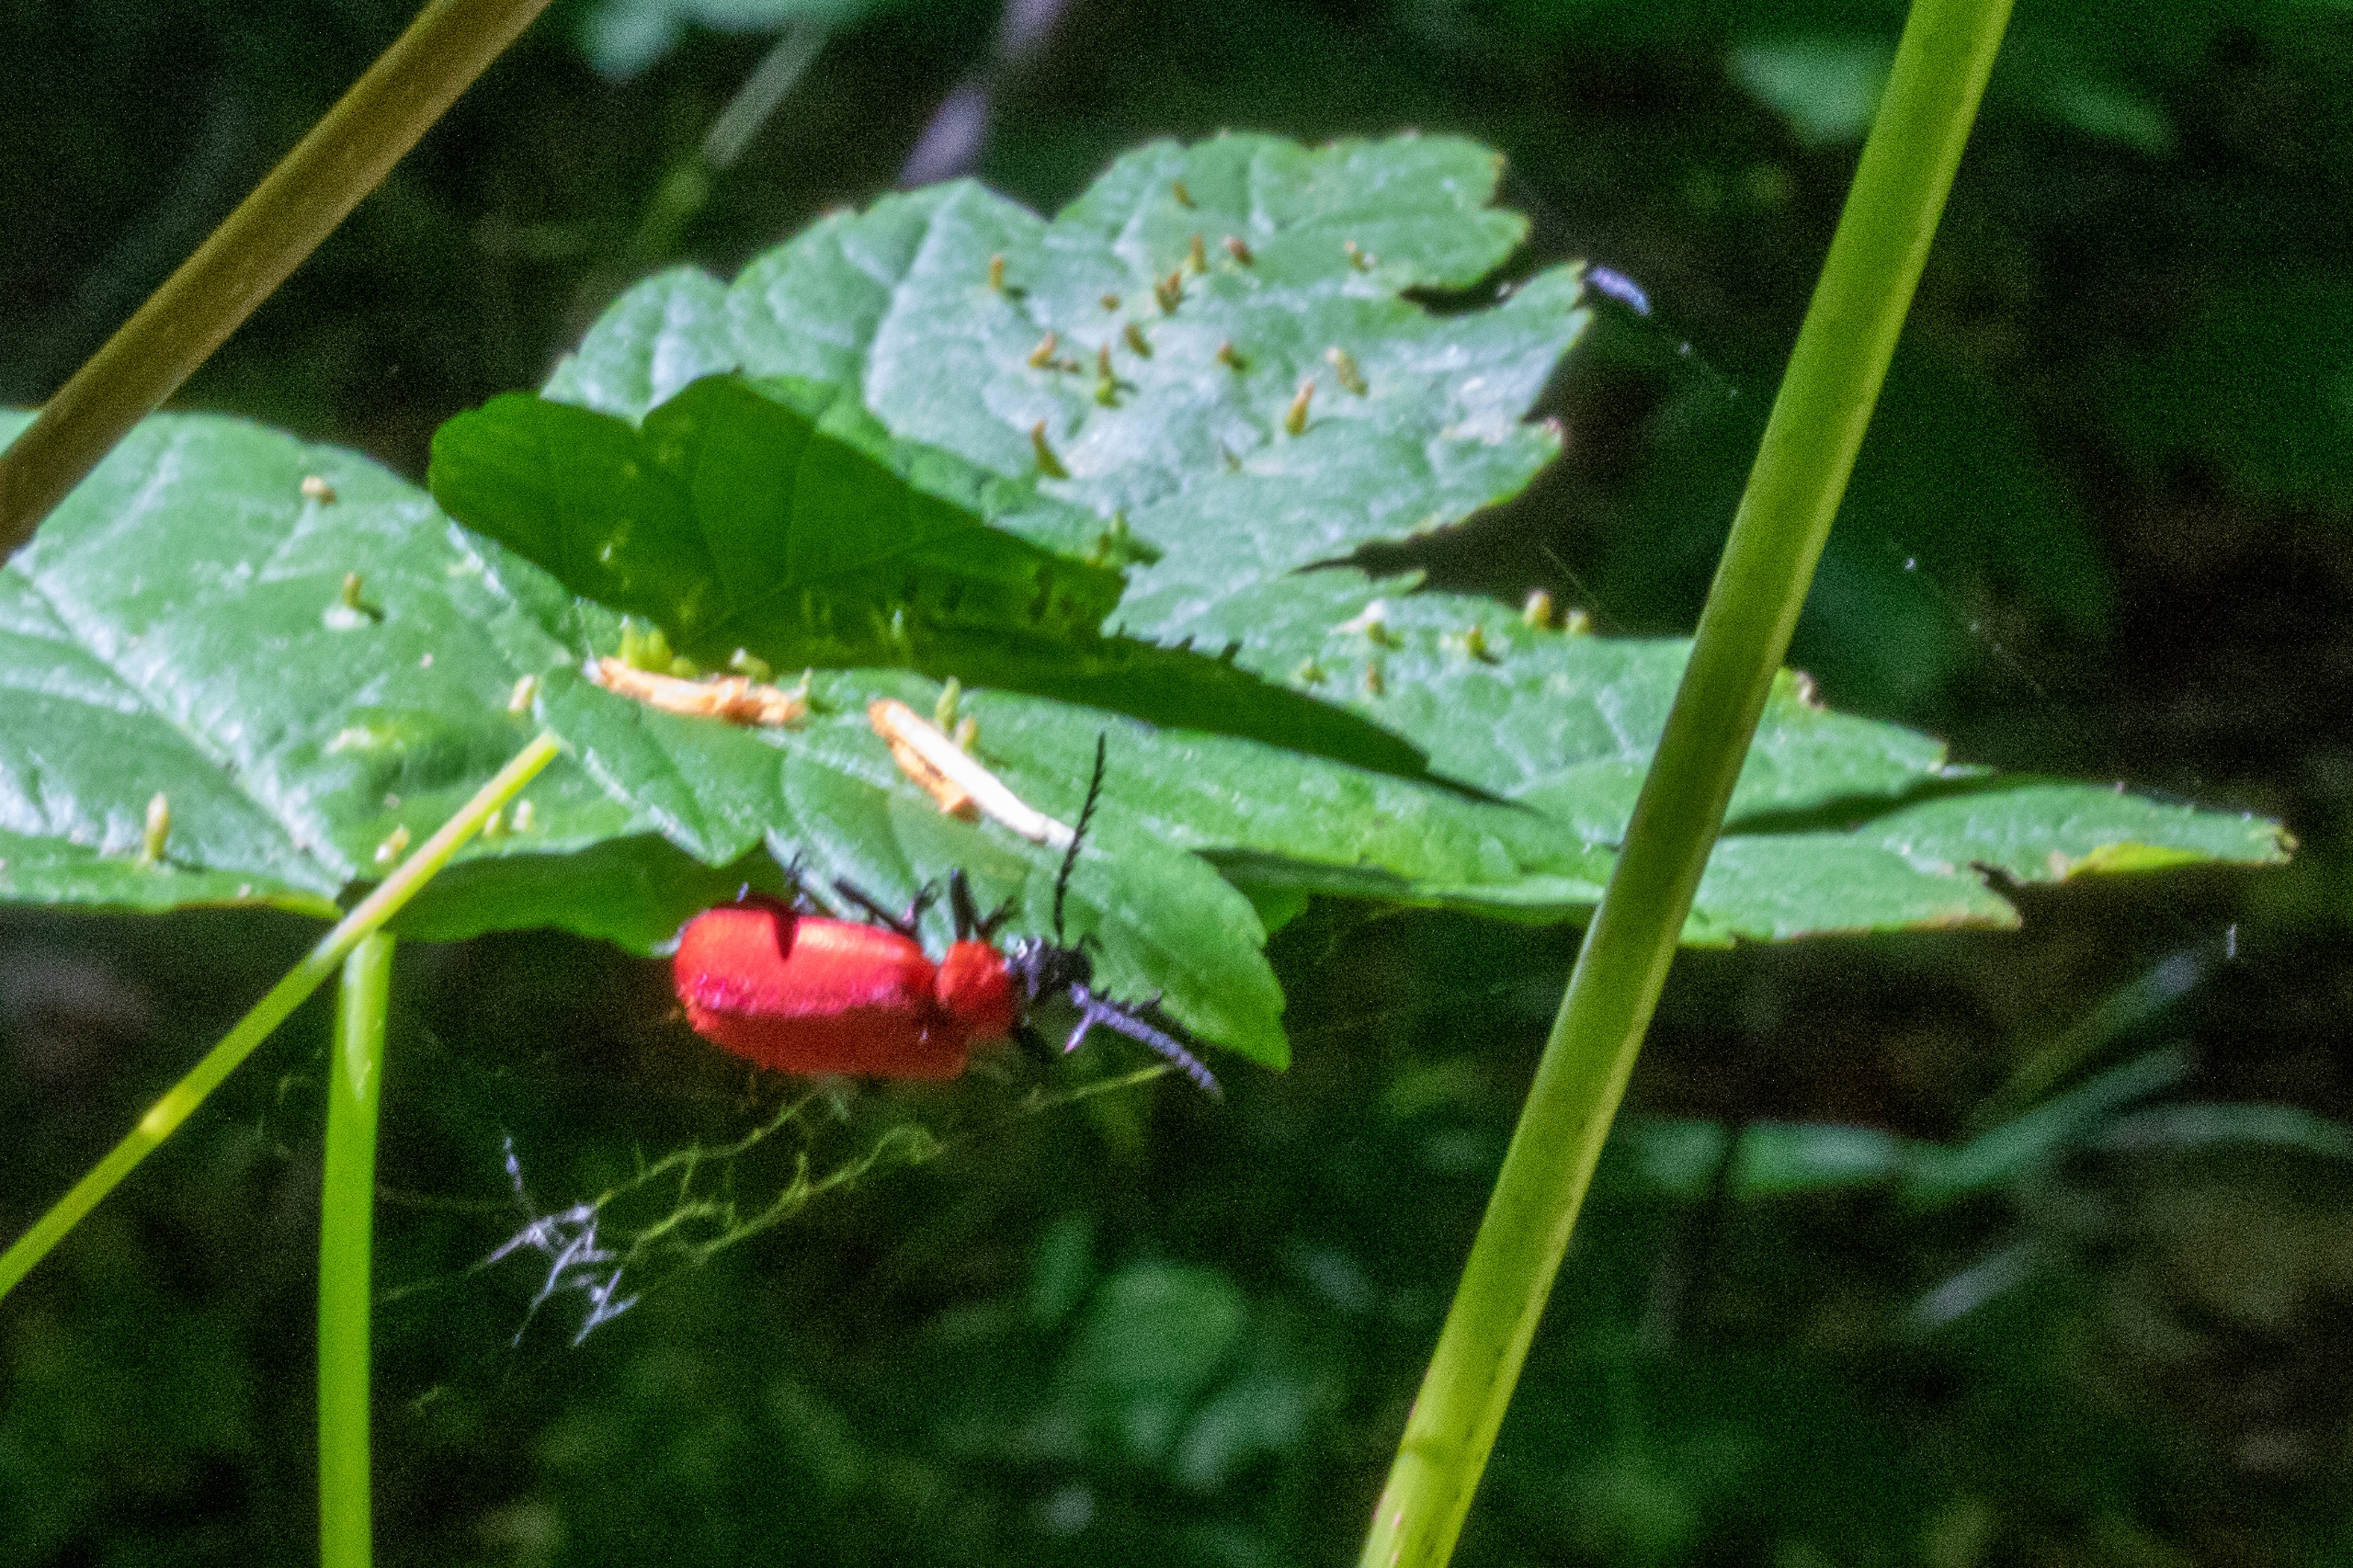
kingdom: Animalia
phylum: Arthropoda
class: Insecta
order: Coleoptera
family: Pyrochroidae
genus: Pyrochroa
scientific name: Pyrochroa coccinea
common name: Sorthovedet kardinalbille
